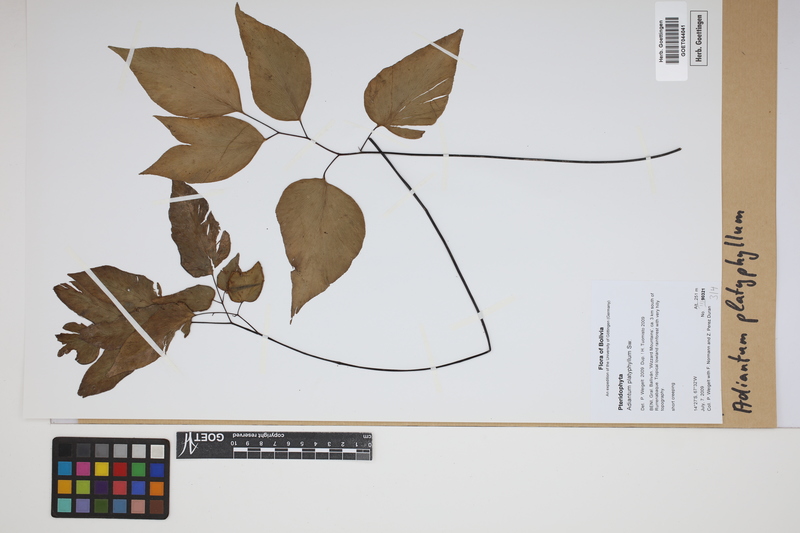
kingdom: Plantae
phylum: Tracheophyta
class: Polypodiopsida
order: Polypodiales
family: Pteridaceae
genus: Adiantum
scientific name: Adiantum platyphyllum
